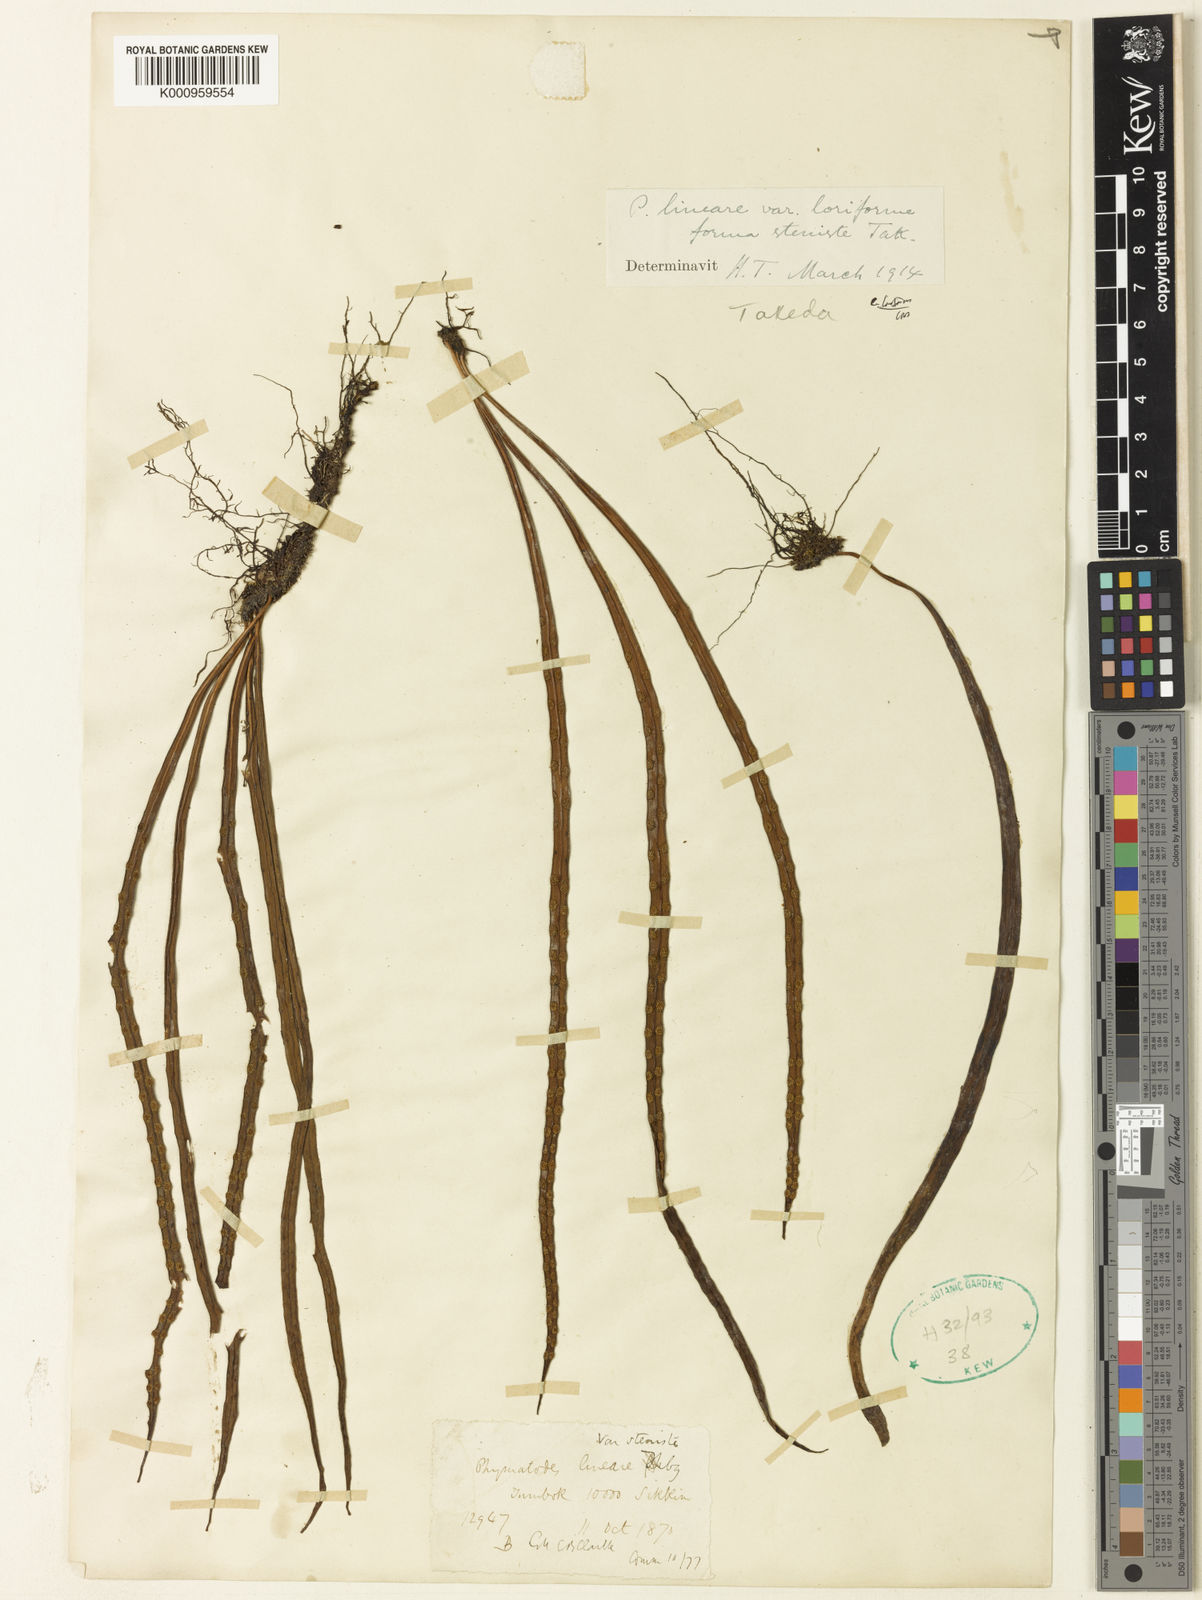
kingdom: Plantae
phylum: Tracheophyta
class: Polypodiopsida
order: Polypodiales
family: Polypodiaceae
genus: Lepisorus
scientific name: Lepisorus loriformis
